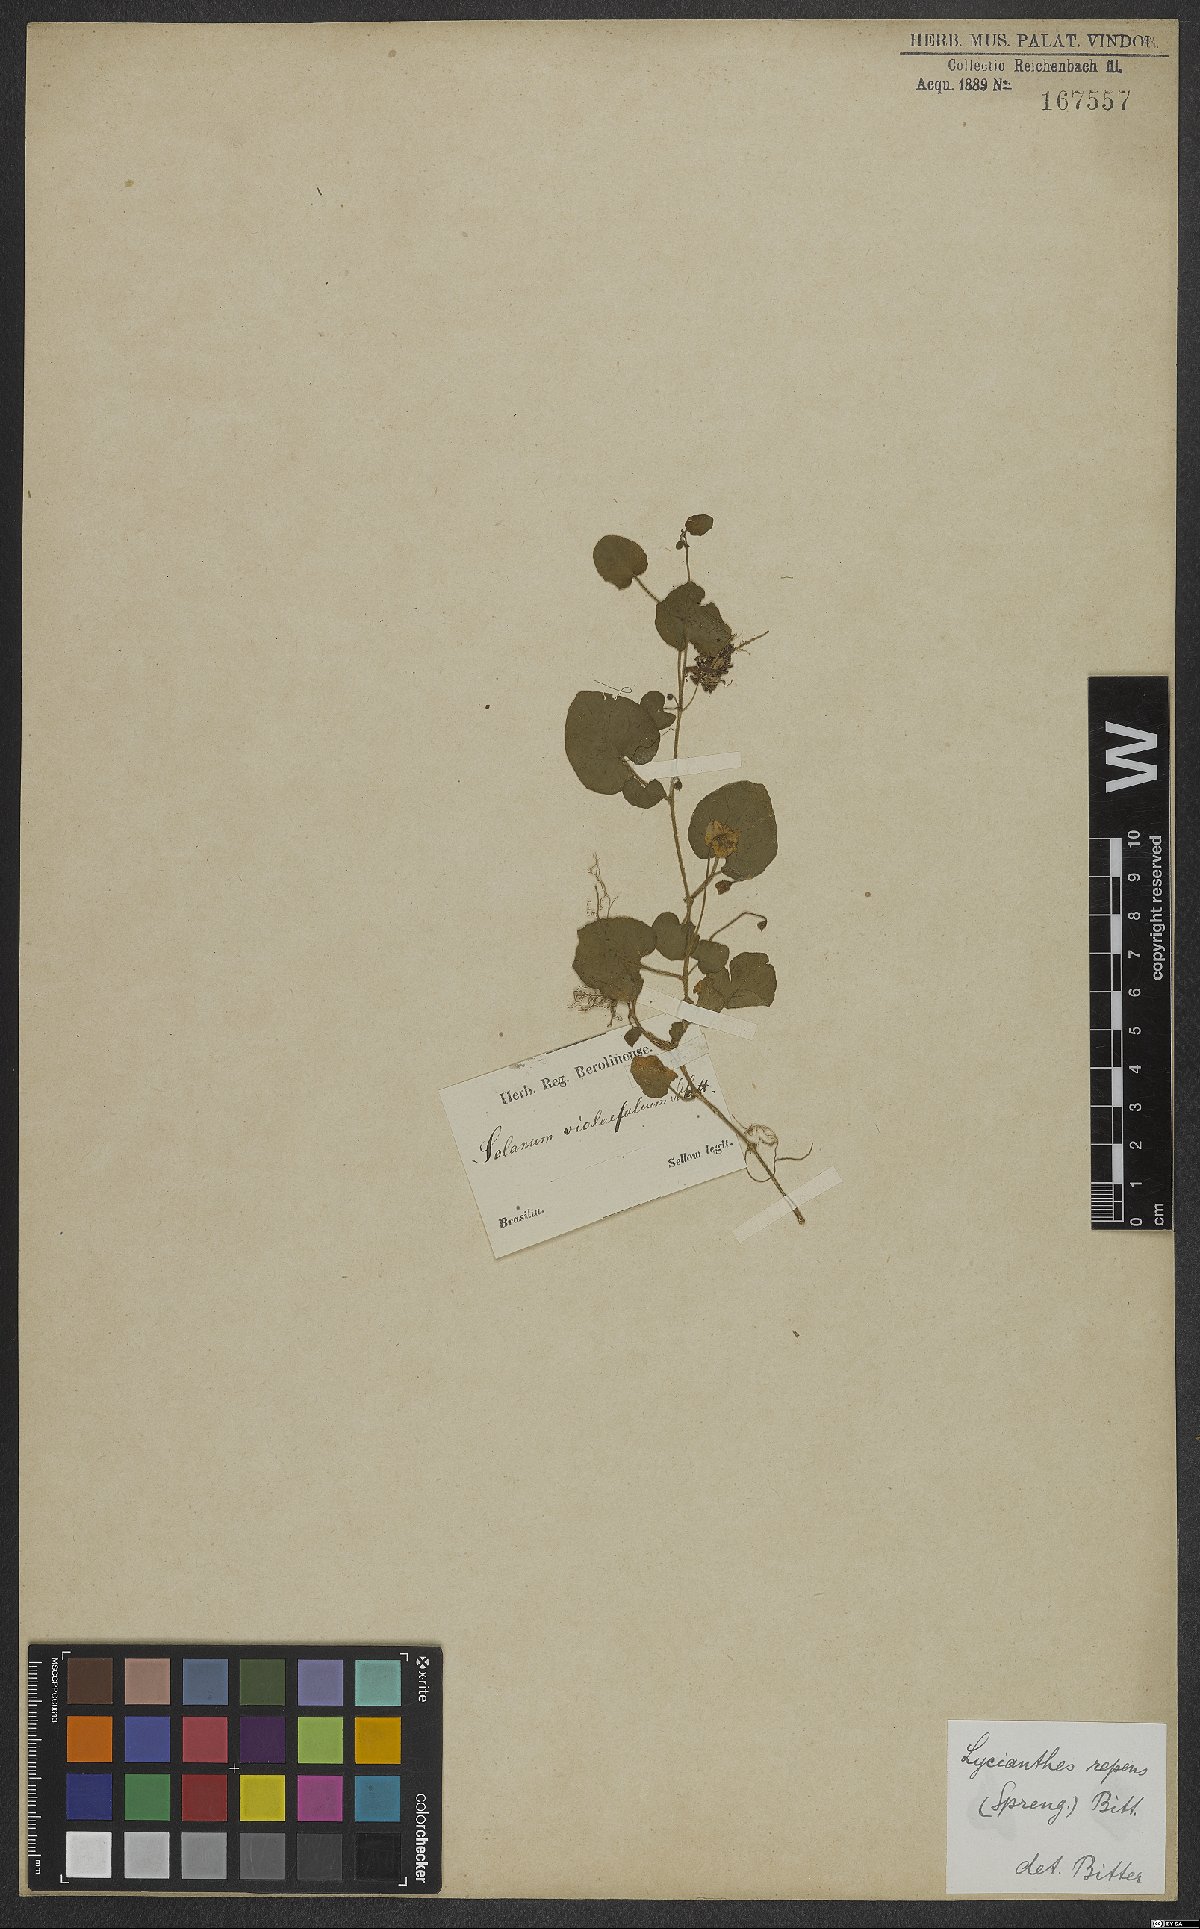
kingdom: Plantae
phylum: Tracheophyta
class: Magnoliopsida
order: Solanales
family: Solanaceae
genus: Lycianthes
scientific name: Lycianthes repens
